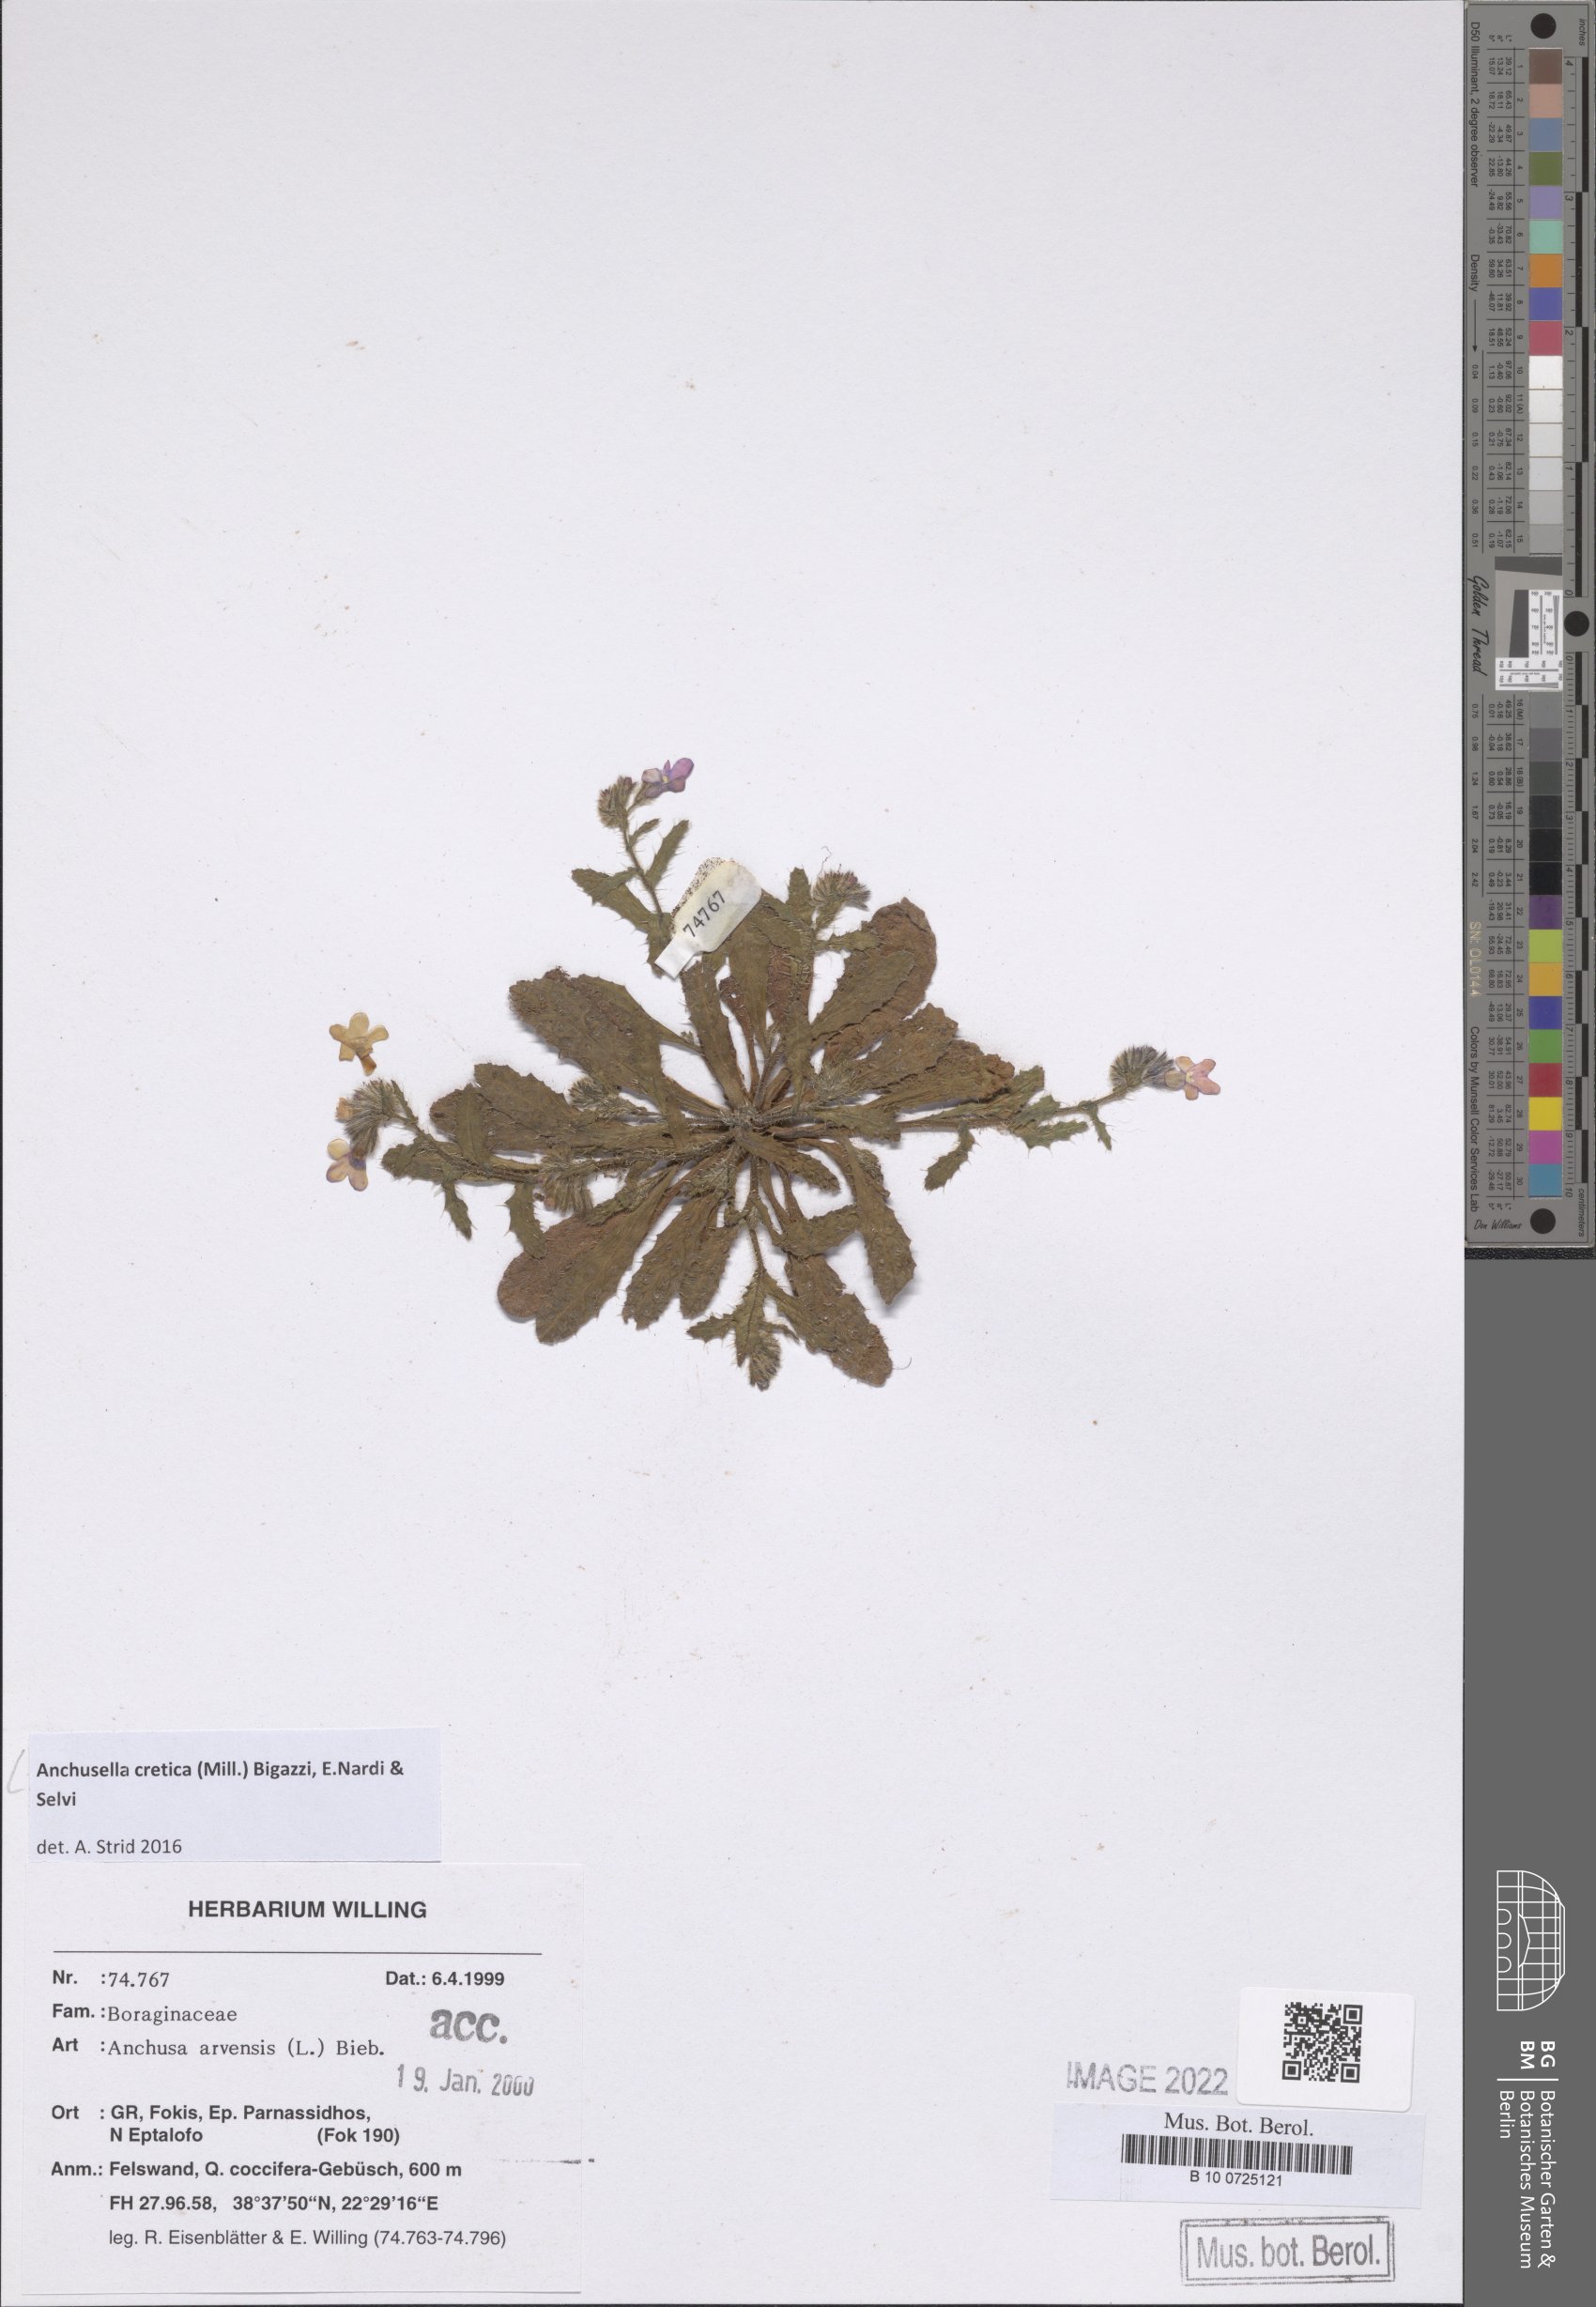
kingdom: Plantae
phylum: Tracheophyta
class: Magnoliopsida
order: Boraginales
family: Boraginaceae
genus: Anchusella
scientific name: Anchusella cretica
